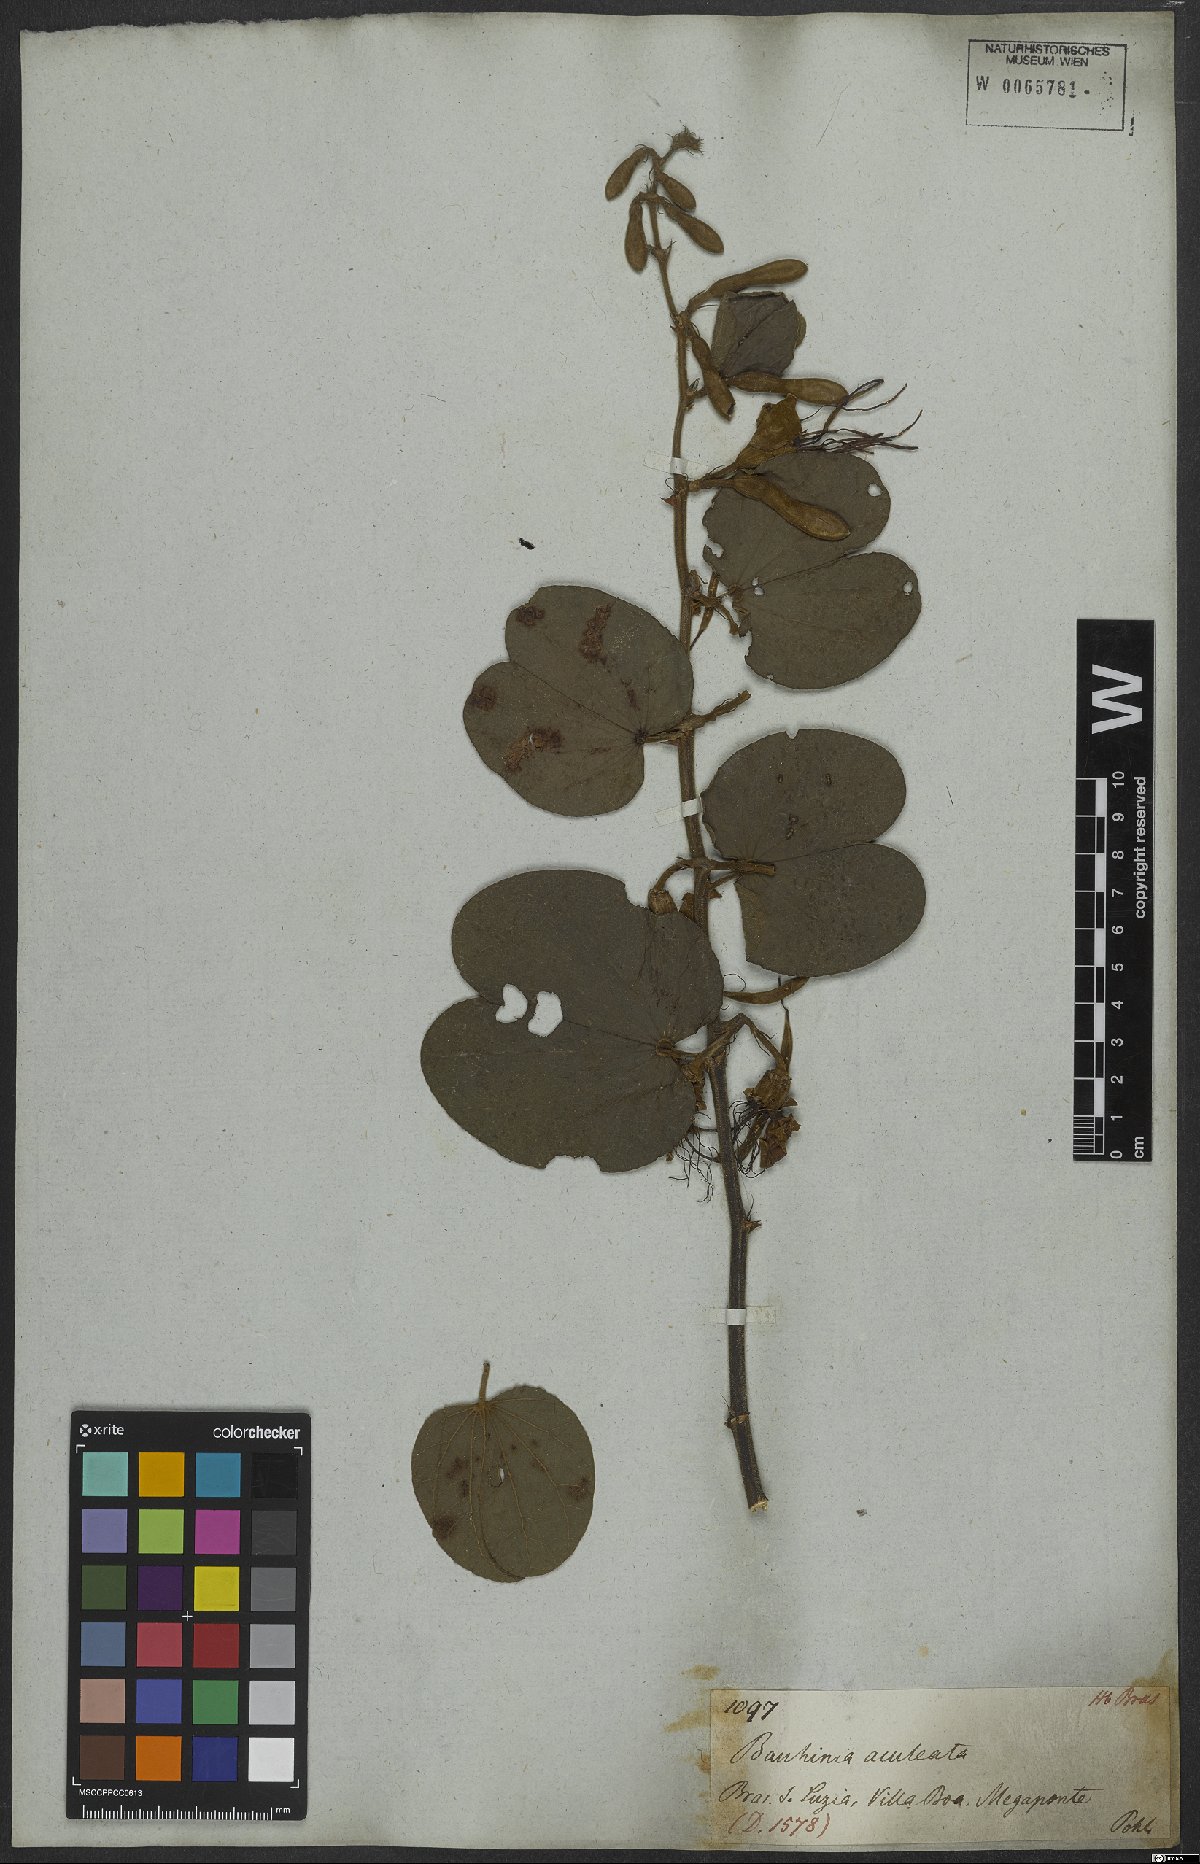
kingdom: Plantae
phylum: Tracheophyta
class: Magnoliopsida
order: Fabales
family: Fabaceae
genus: Bauhinia
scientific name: Bauhinia aculeata
